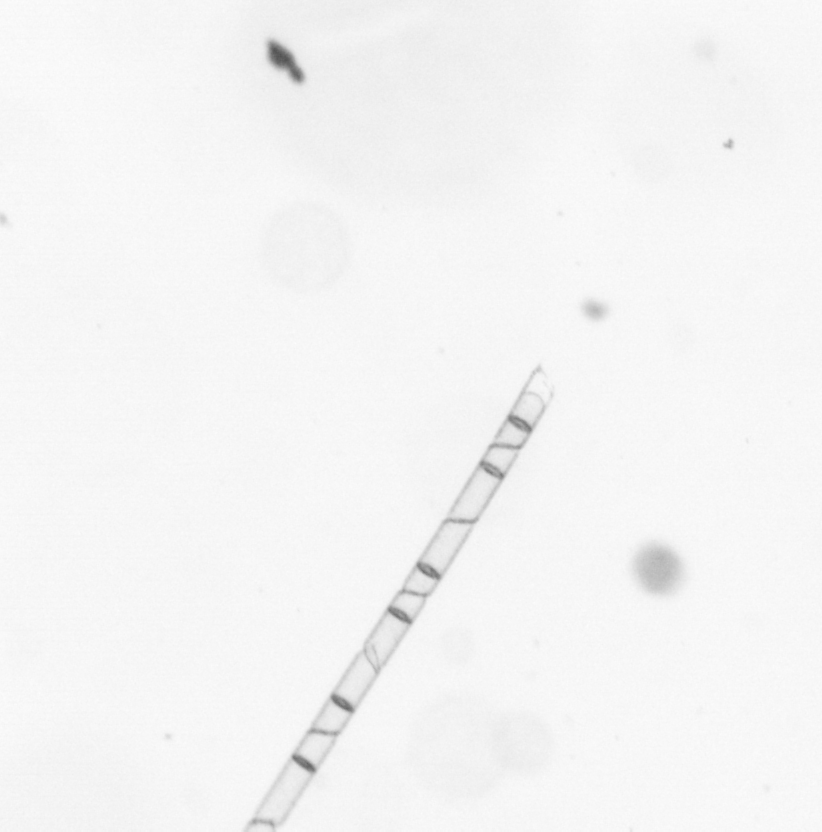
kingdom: Chromista
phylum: Ochrophyta
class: Bacillariophyceae
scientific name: Bacillariophyceae
